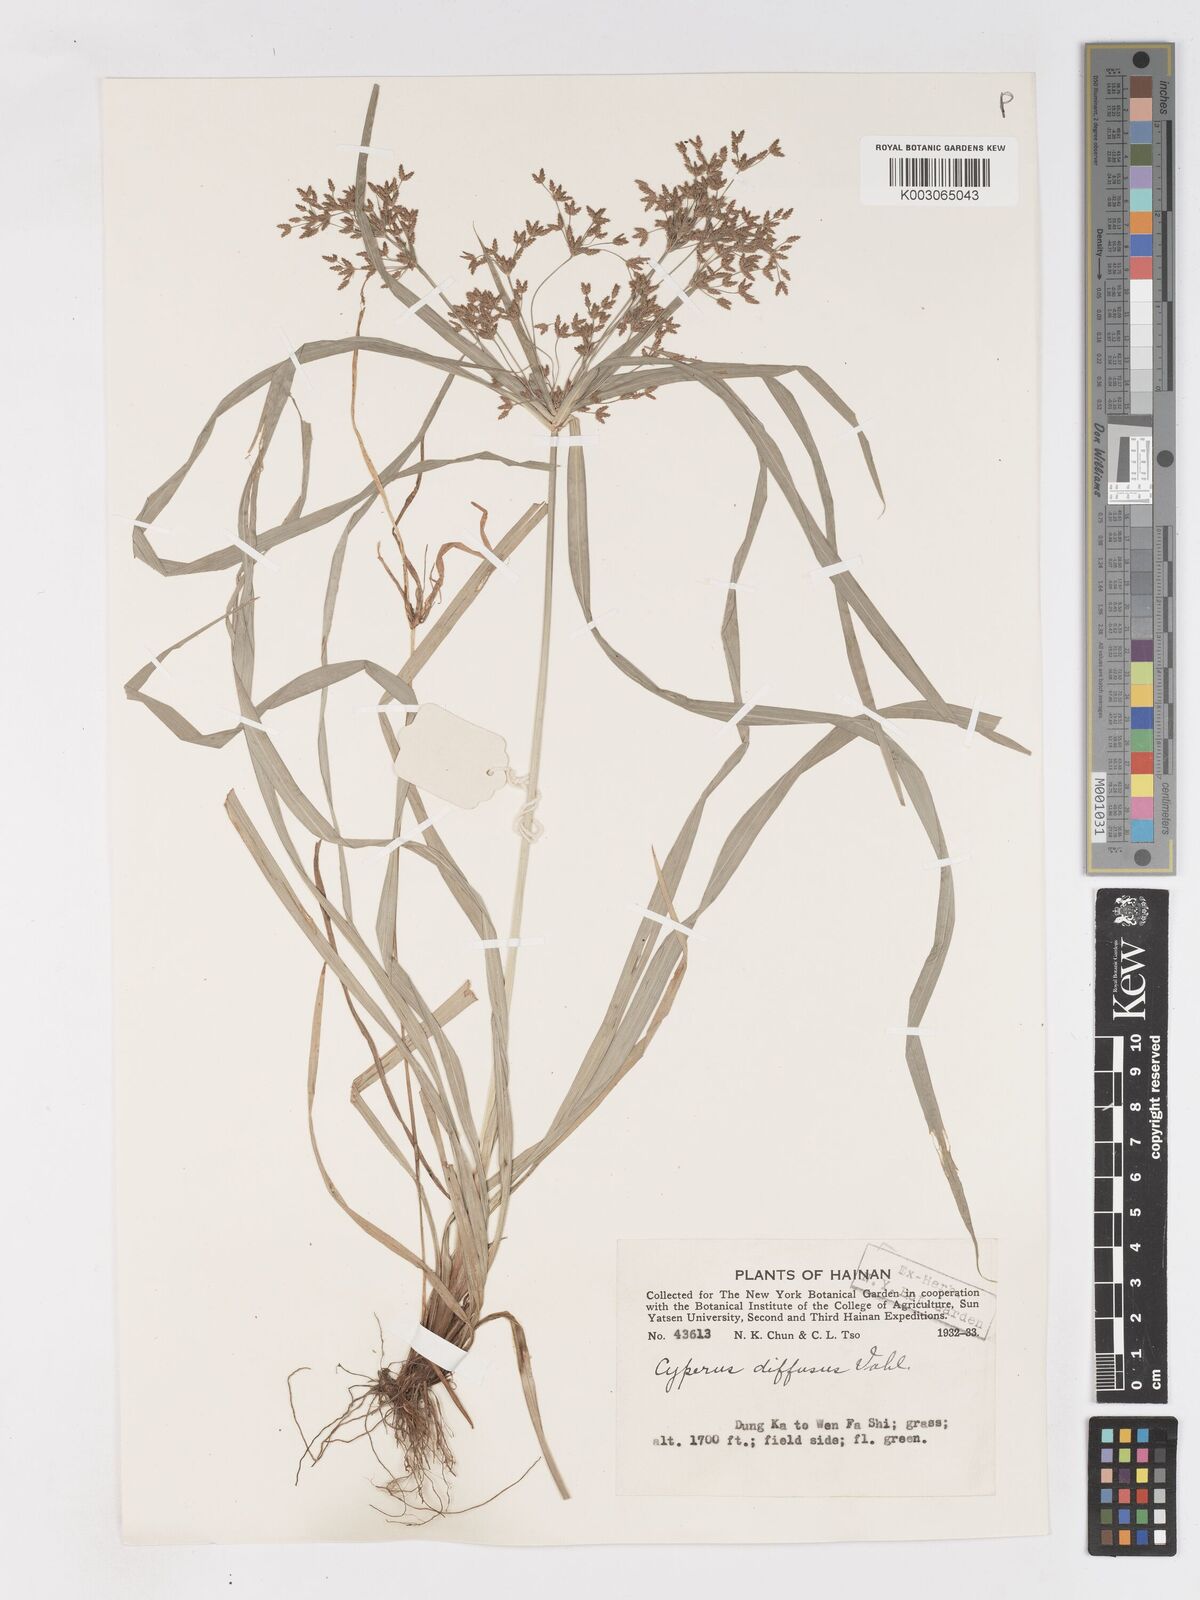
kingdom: Plantae
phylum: Tracheophyta
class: Liliopsida
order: Poales
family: Cyperaceae
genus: Cyperus
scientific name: Cyperus diffusus
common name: Dwarf umbrella grass
